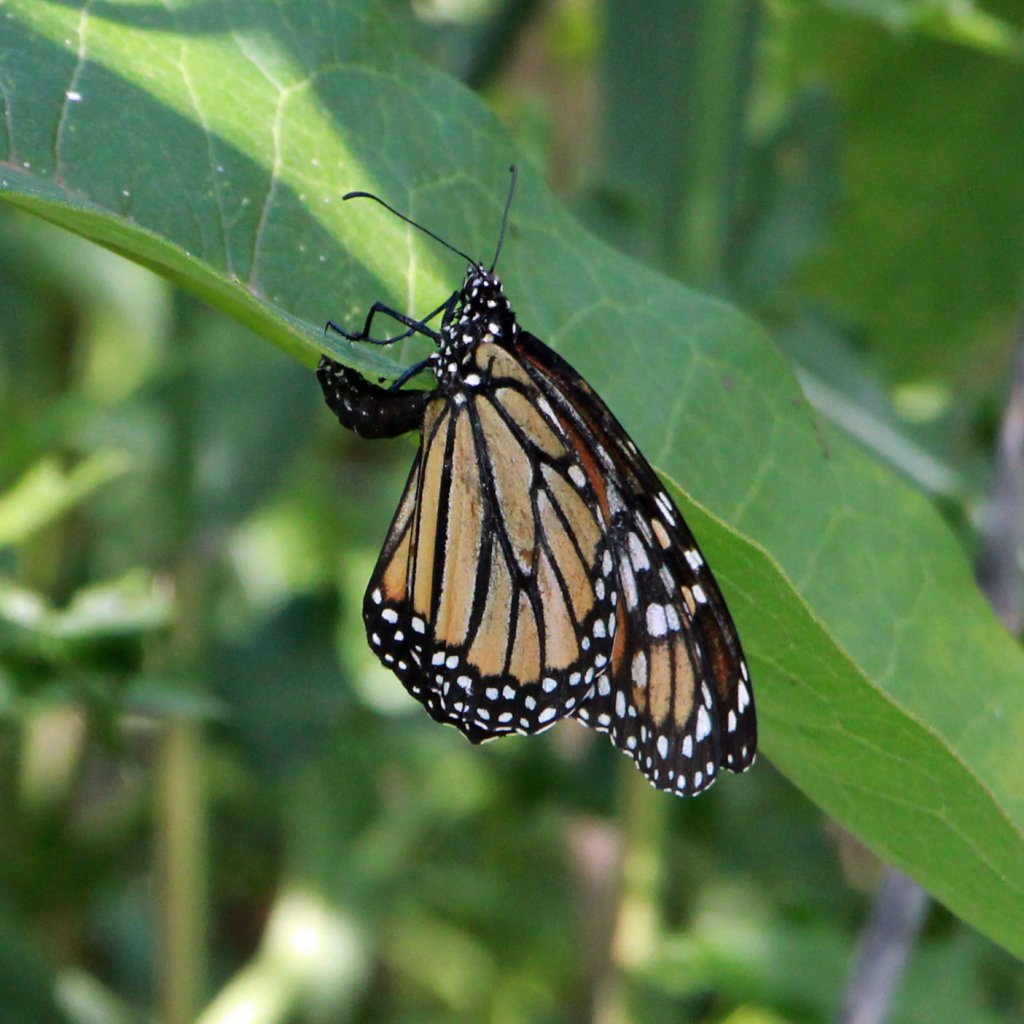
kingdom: Animalia
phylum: Arthropoda
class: Insecta
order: Lepidoptera
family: Nymphalidae
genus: Danaus
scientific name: Danaus plexippus
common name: Monarch
